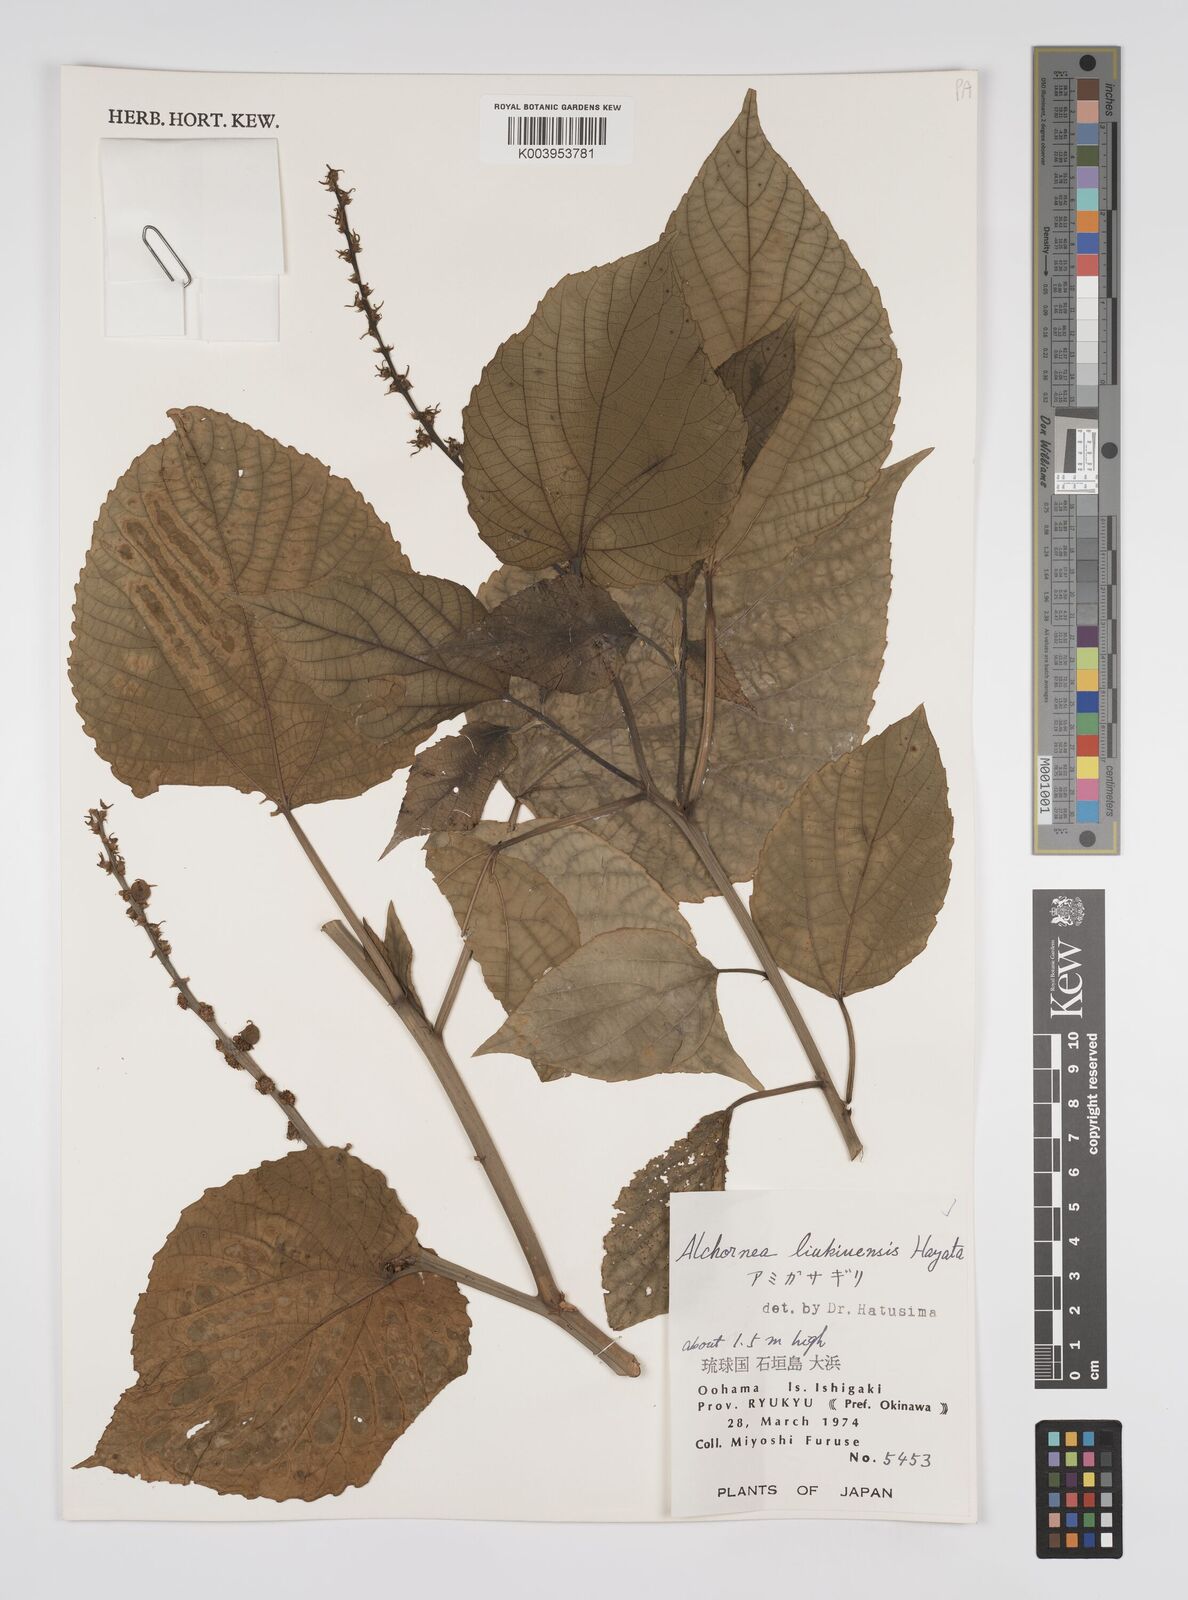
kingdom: Plantae
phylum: Tracheophyta
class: Magnoliopsida
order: Malpighiales
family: Euphorbiaceae
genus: Alchornea
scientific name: Alchornea liukiuensis
